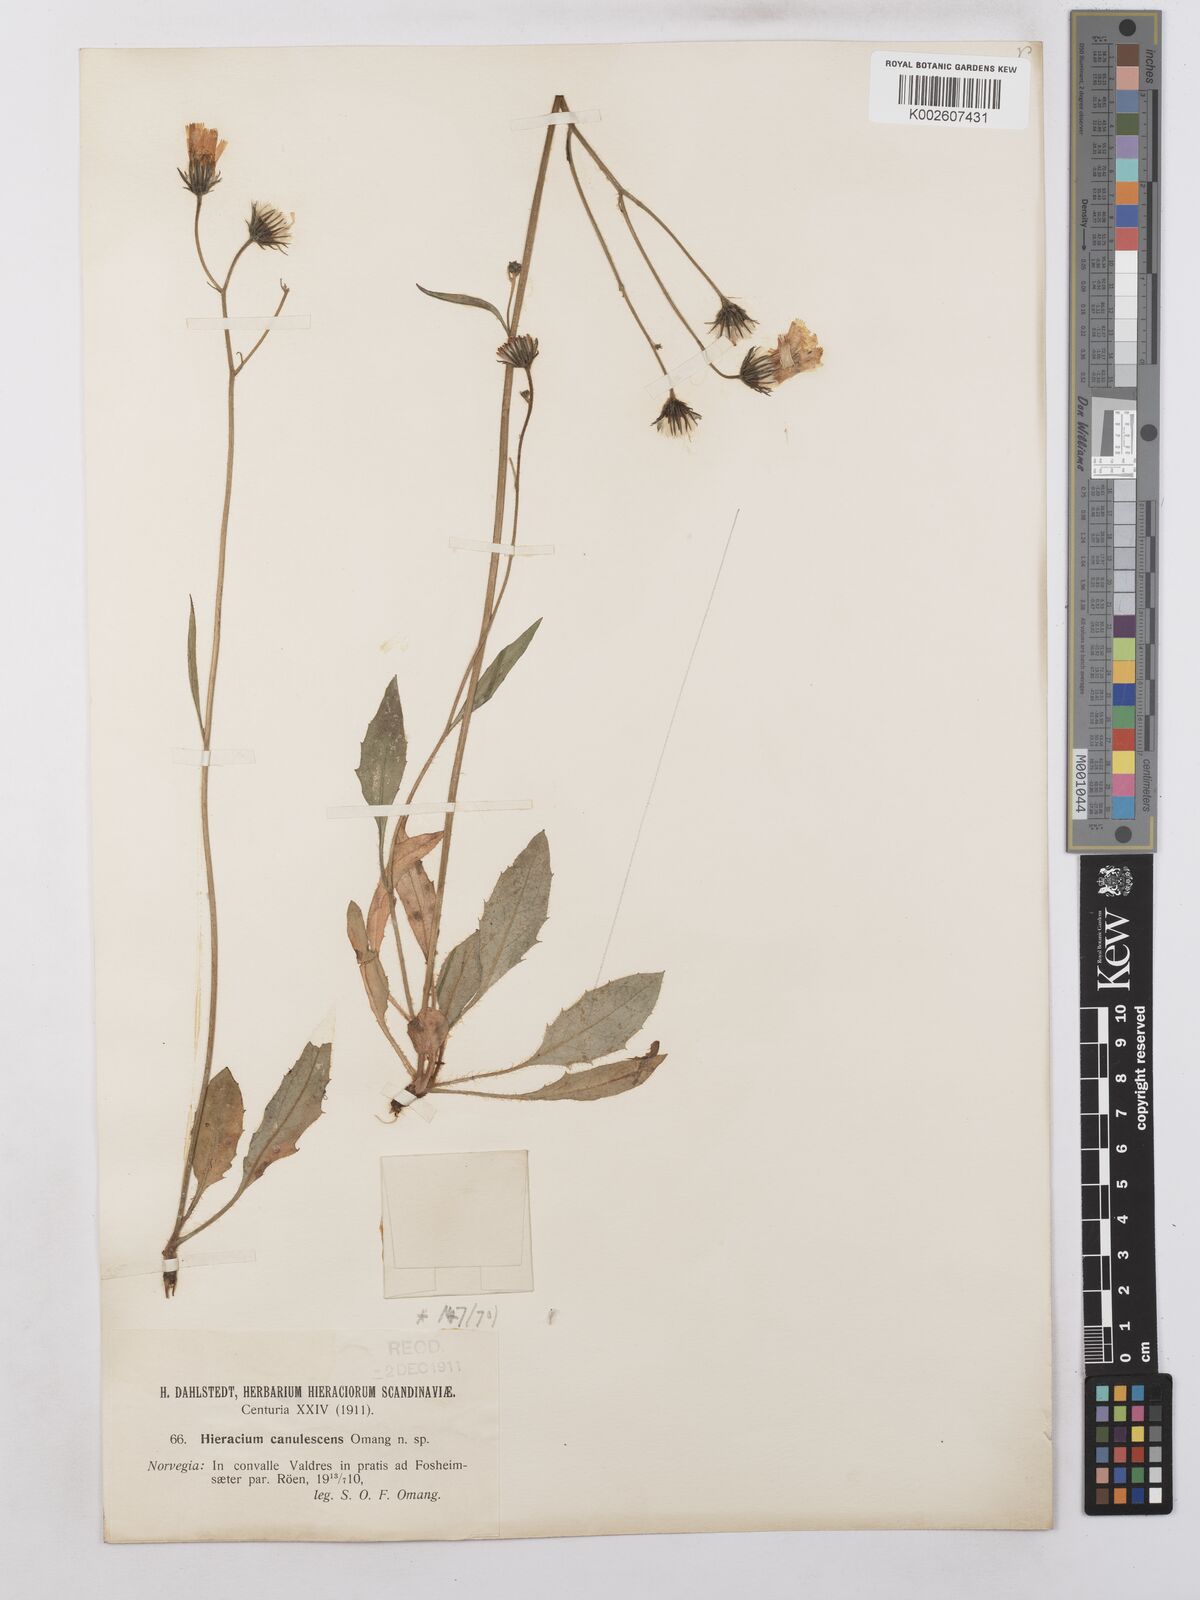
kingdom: Plantae
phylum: Tracheophyta
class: Magnoliopsida
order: Asterales
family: Asteraceae
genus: Hieracium
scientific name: Hieracium caesium
